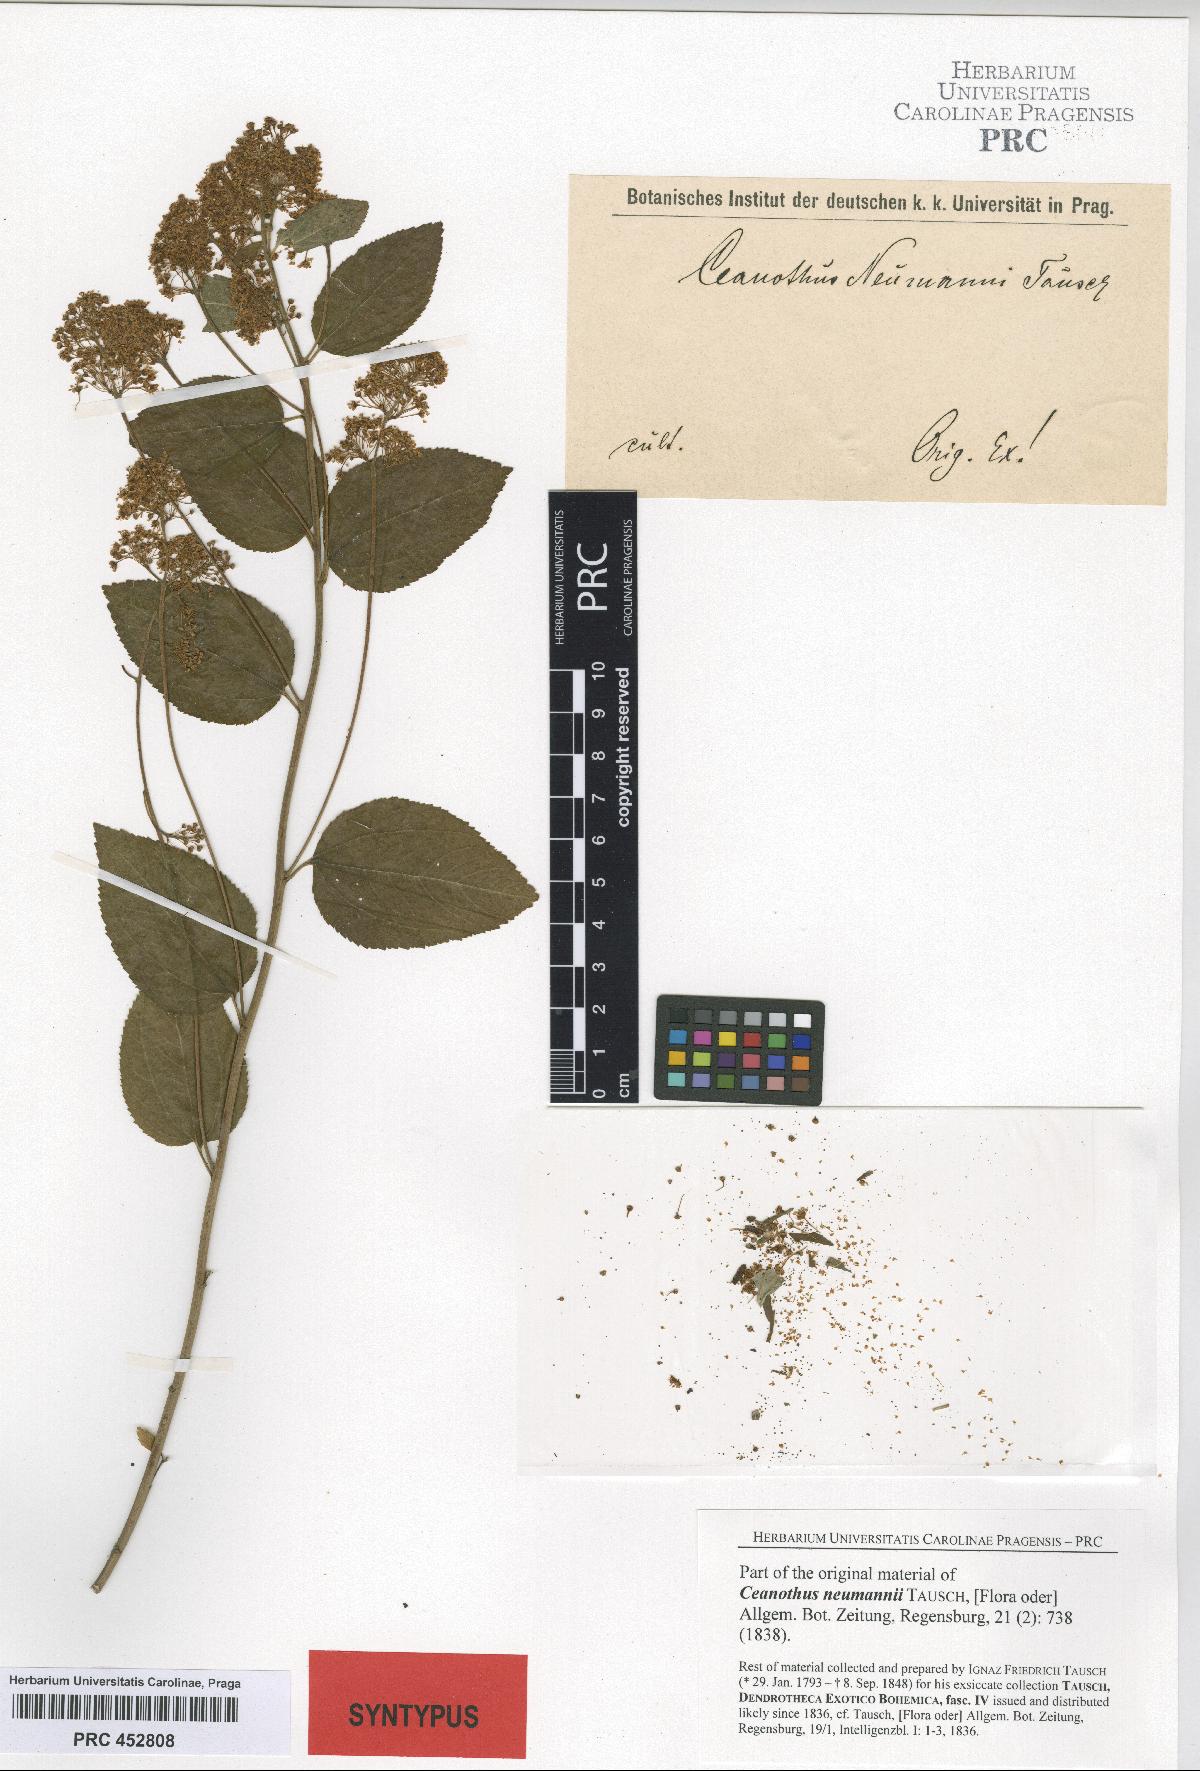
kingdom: Plantae
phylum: Tracheophyta
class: Magnoliopsida
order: Rosales
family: Rhamnaceae
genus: Ceanothus
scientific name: Ceanothus neumannii
